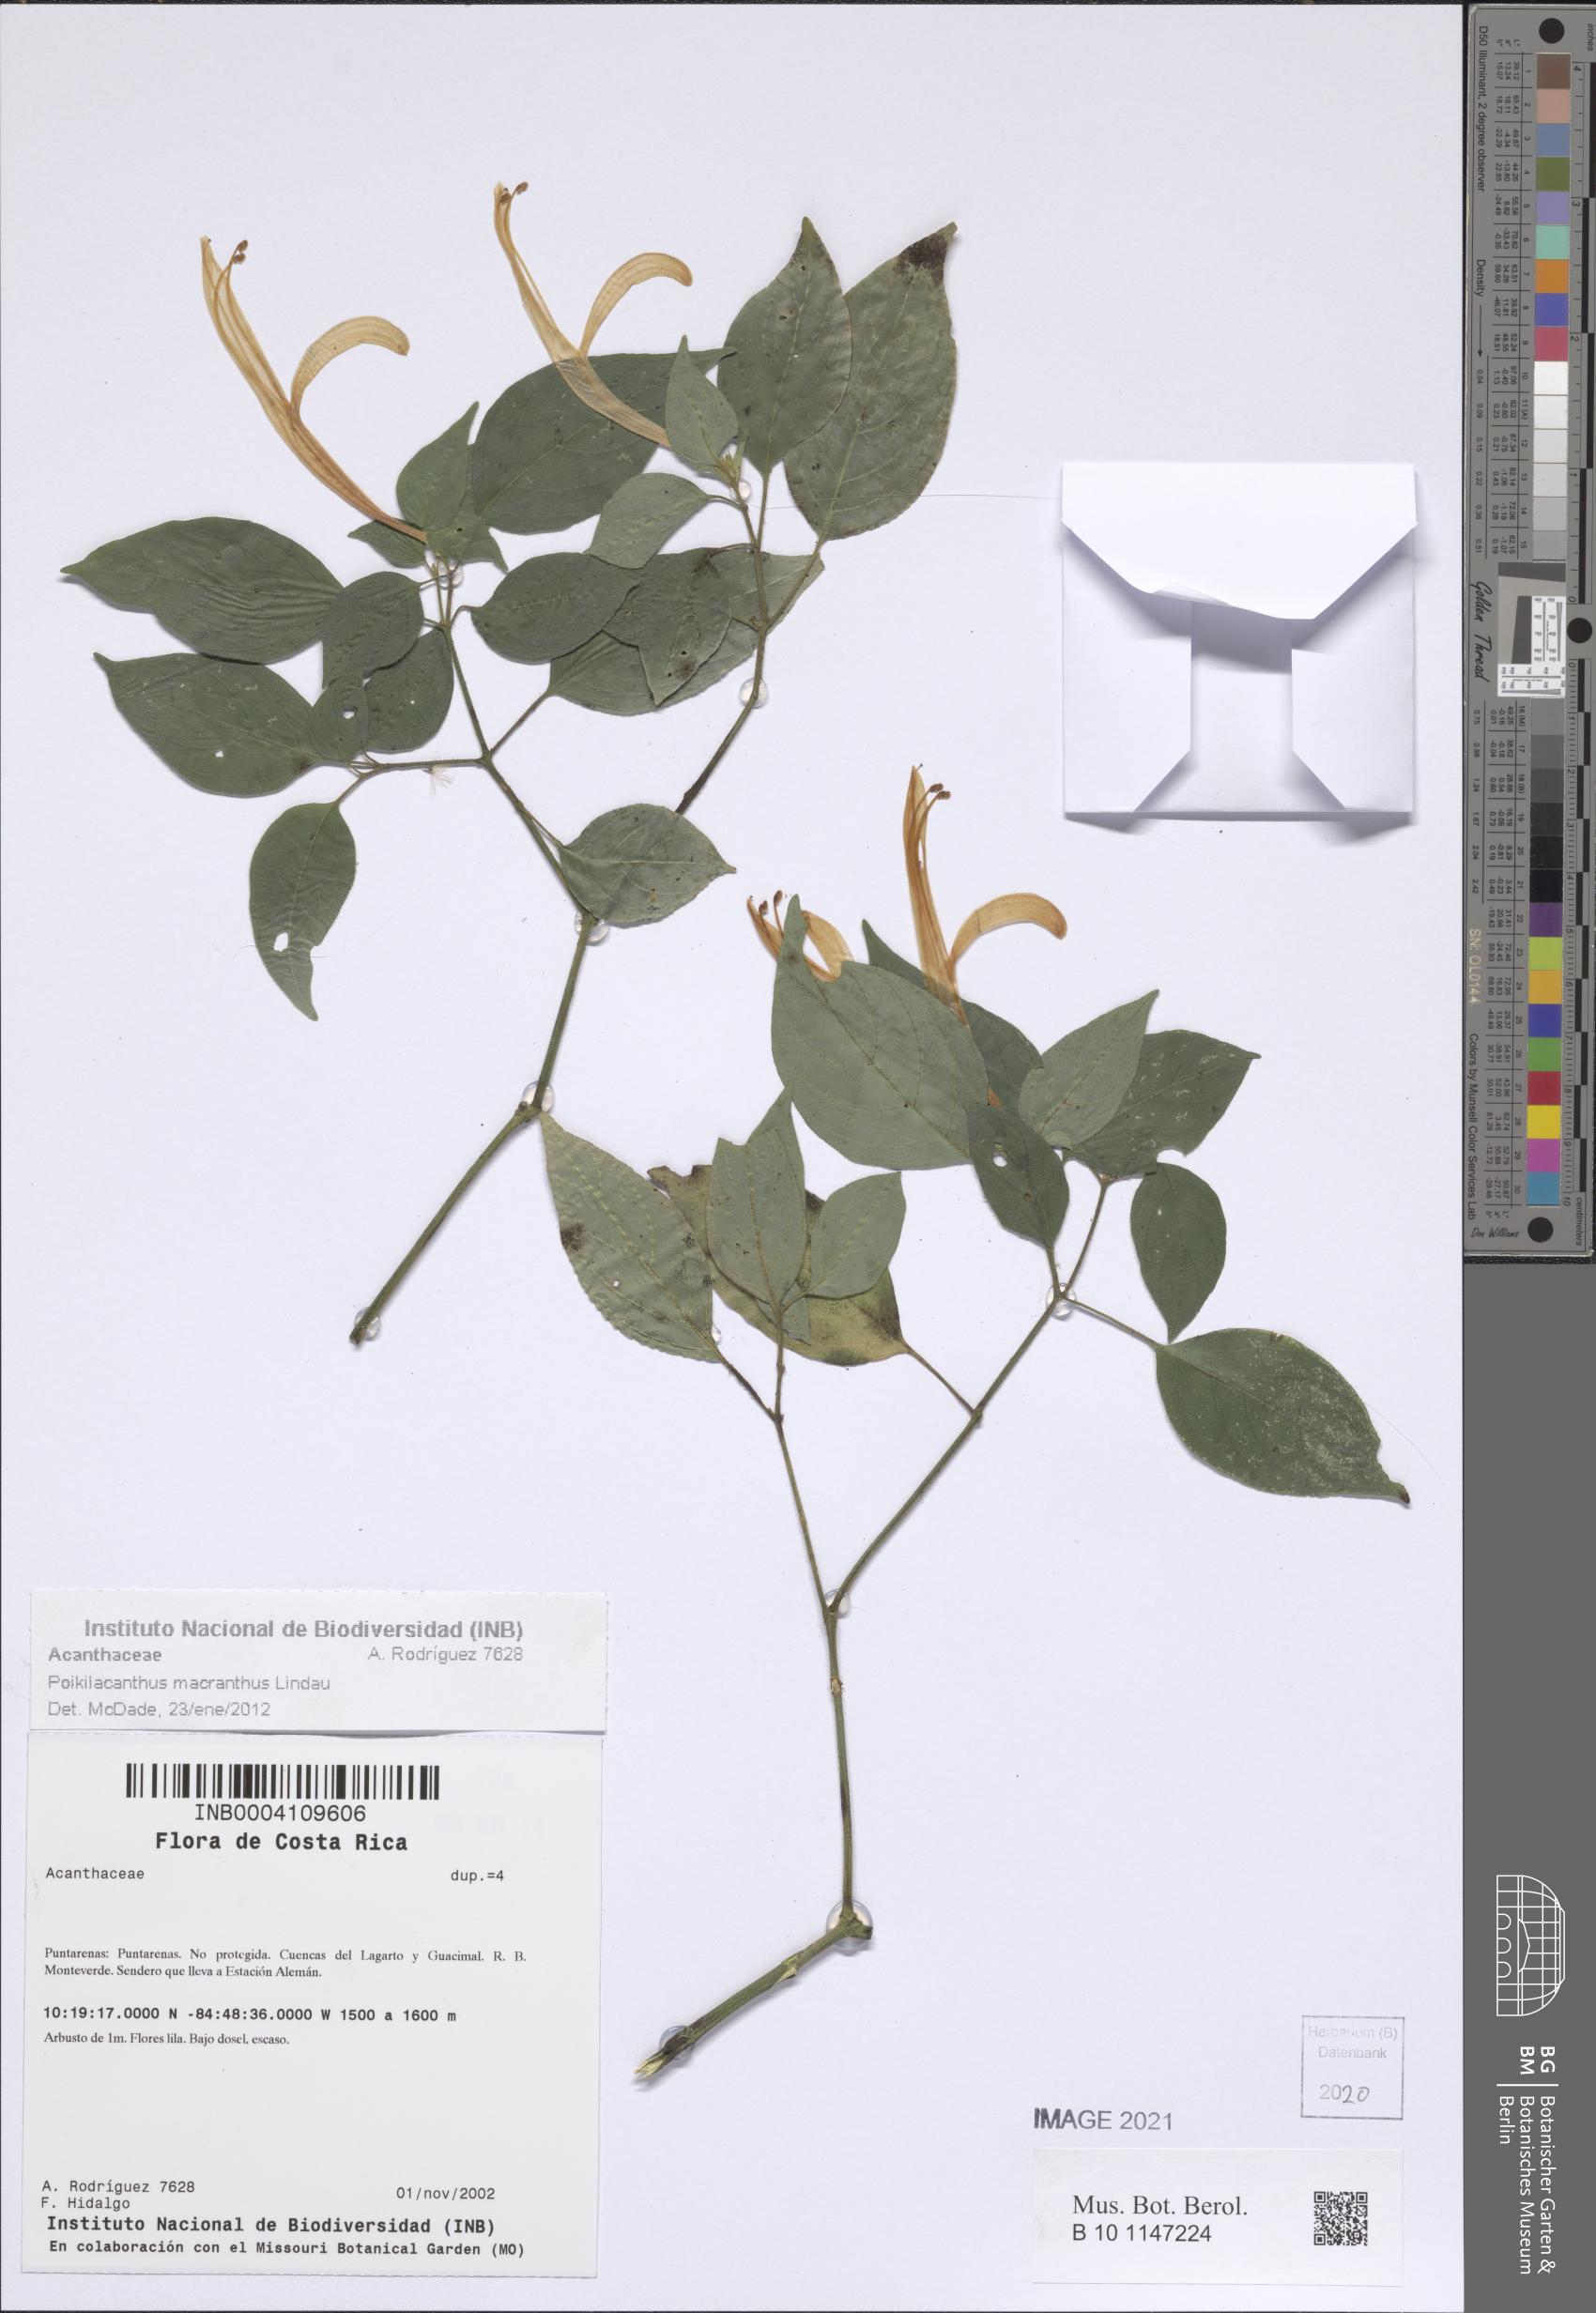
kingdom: Plantae
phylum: Tracheophyta
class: Magnoliopsida
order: Lamiales
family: Acanthaceae
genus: Poikilacanthus
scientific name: Poikilacanthus macranthus
